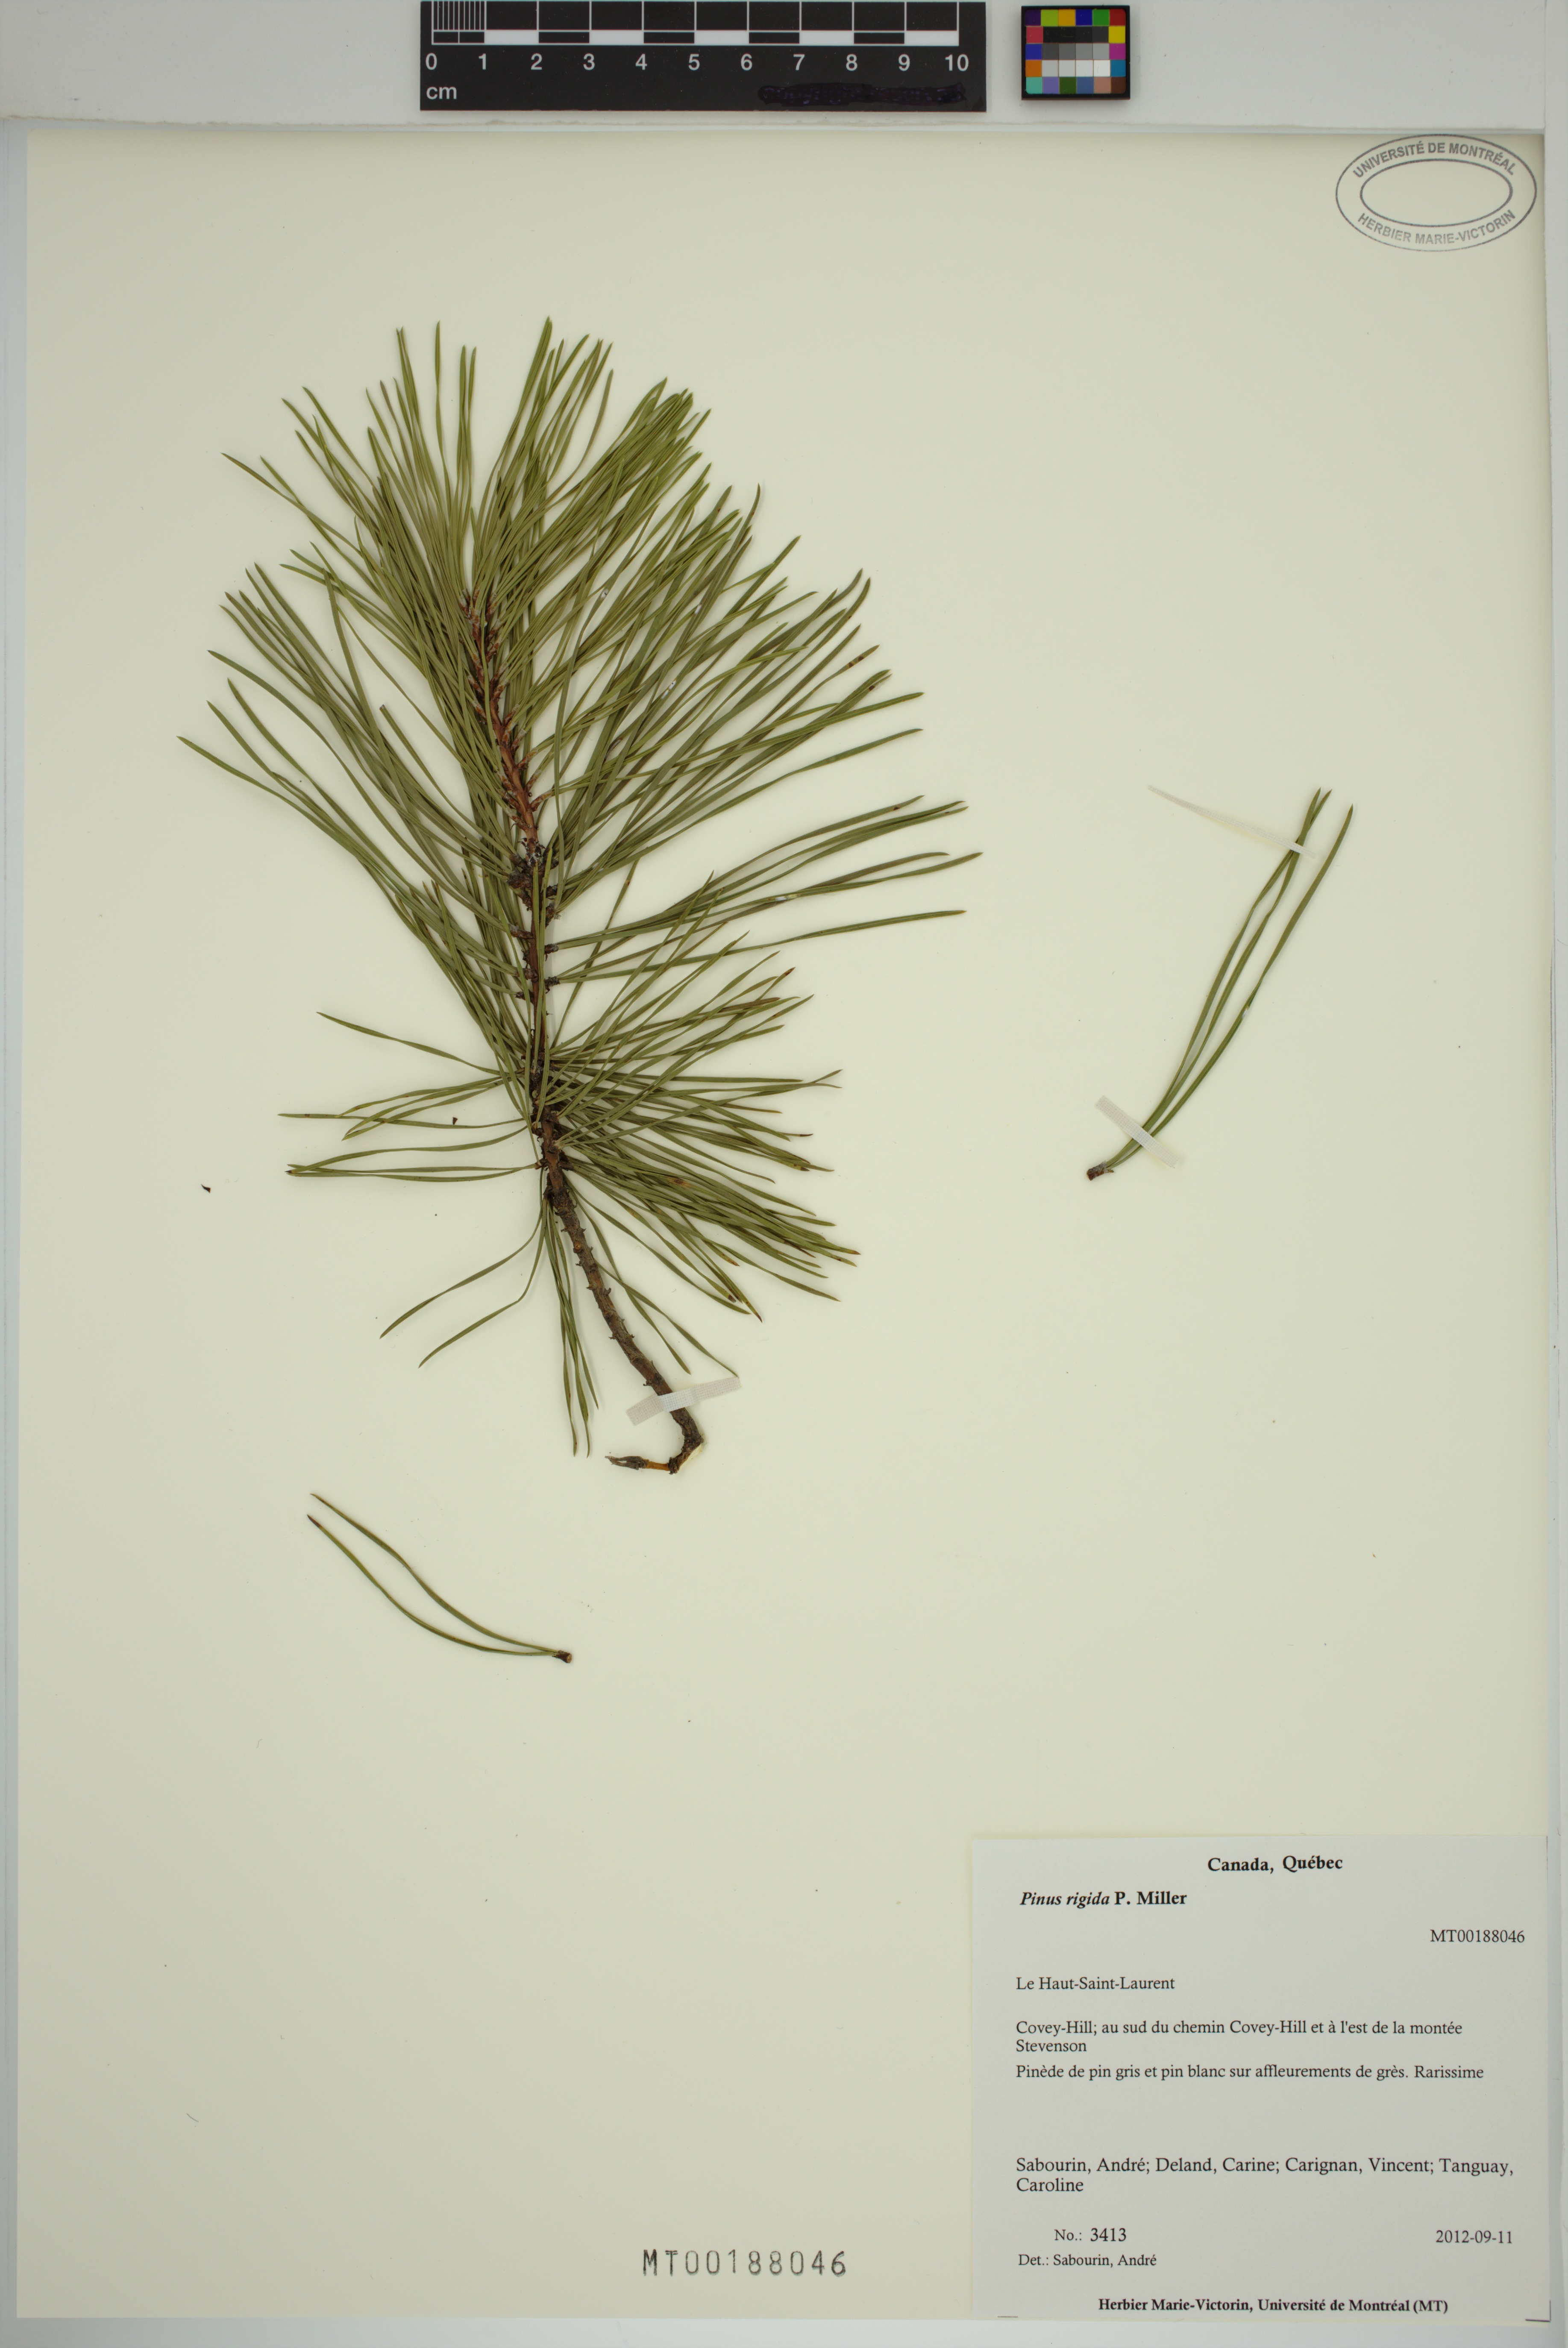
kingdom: Plantae
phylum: Tracheophyta
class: Pinopsida
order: Pinales
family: Pinaceae
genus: Pinus
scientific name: Pinus rigida
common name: Pitch pine
